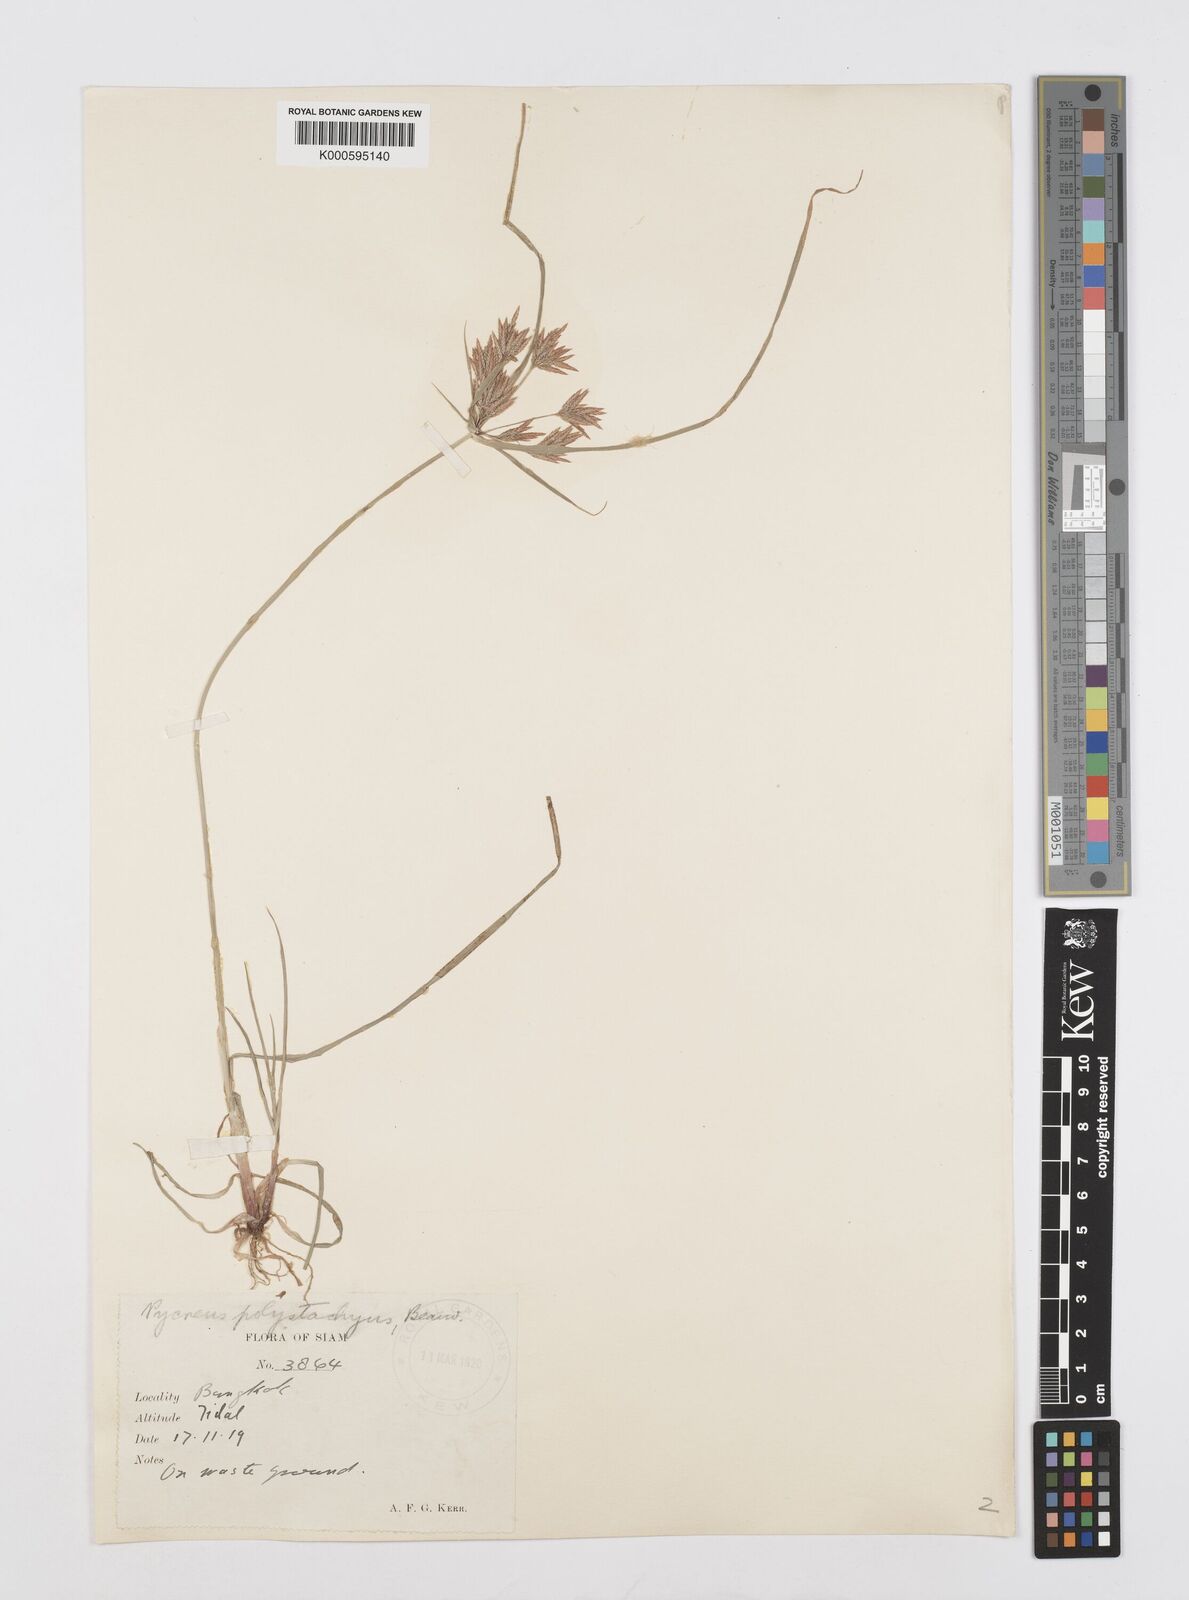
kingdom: Plantae
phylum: Tracheophyta
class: Liliopsida
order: Poales
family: Cyperaceae
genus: Cyperus
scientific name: Cyperus polystachyos
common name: Bunchy flat sedge
